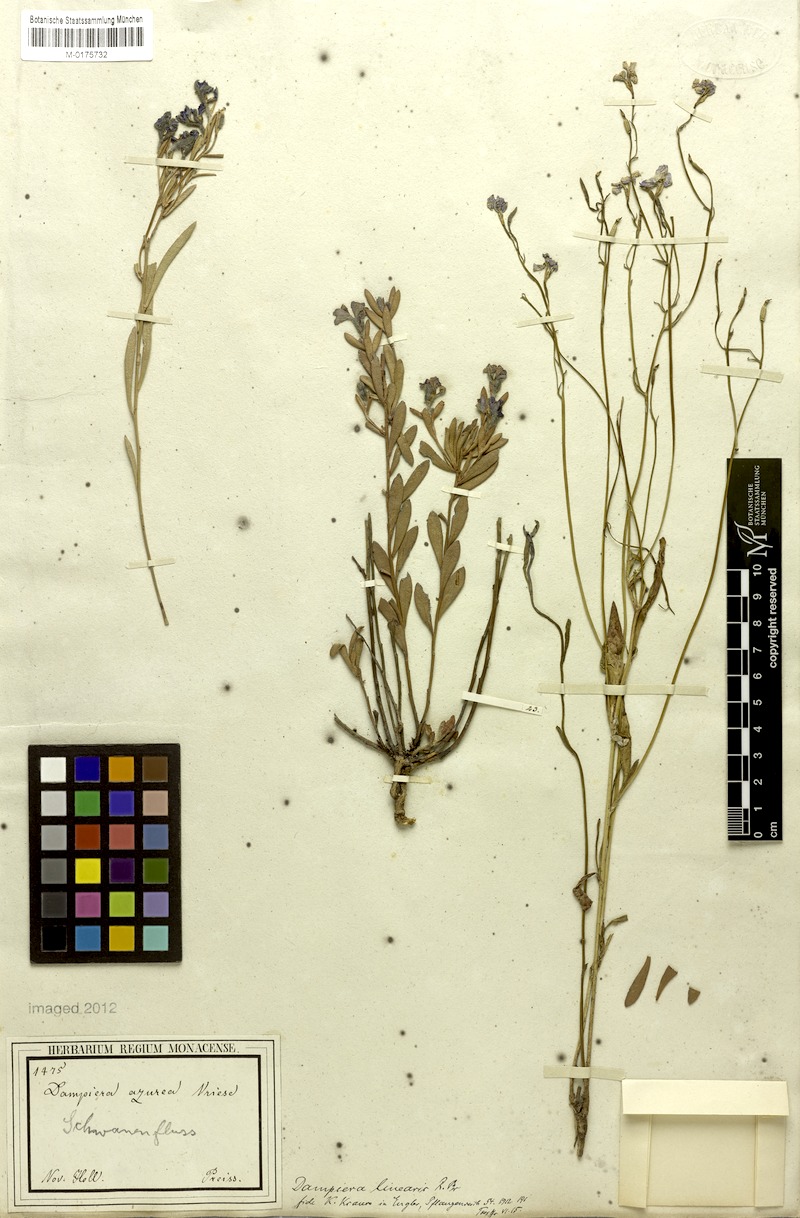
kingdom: Plantae
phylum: Tracheophyta
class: Magnoliopsida
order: Asterales
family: Goodeniaceae
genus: Dampiera
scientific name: Dampiera linearis
